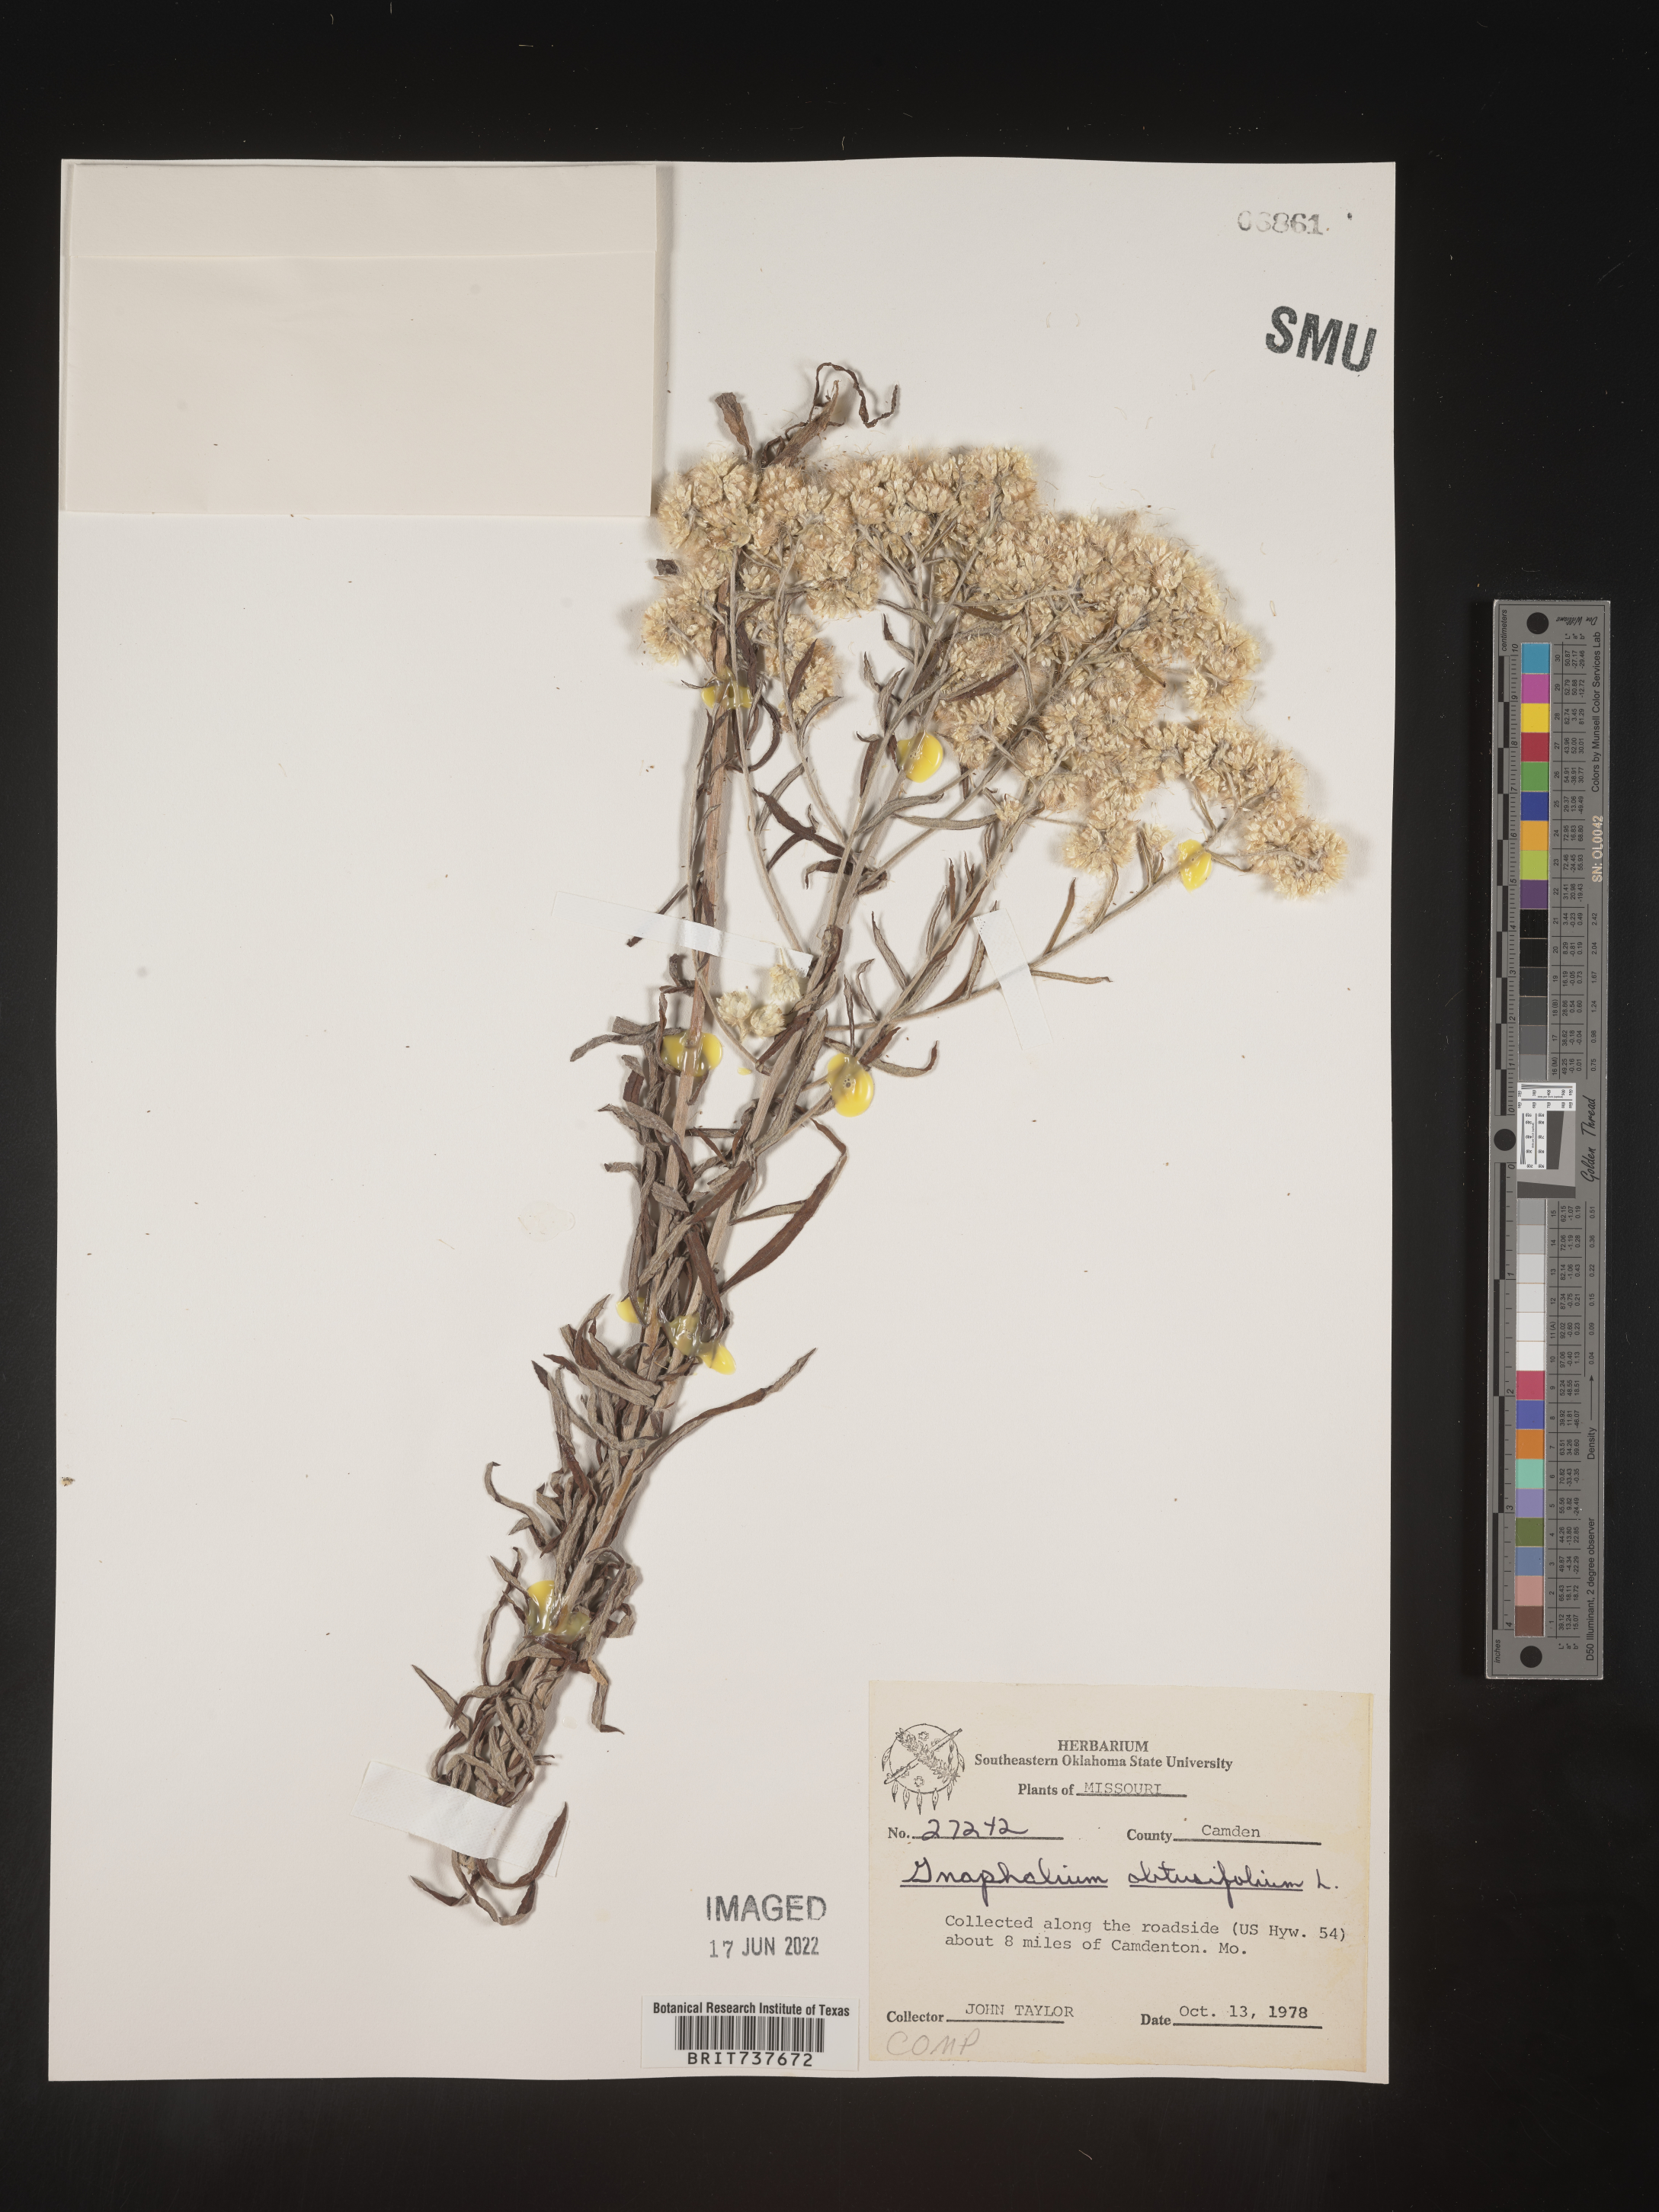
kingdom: Plantae
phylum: Tracheophyta
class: Magnoliopsida
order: Asterales
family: Asteraceae
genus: Pseudognaphalium
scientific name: Pseudognaphalium obtusifolium
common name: Eastern rabbit-tobacco
